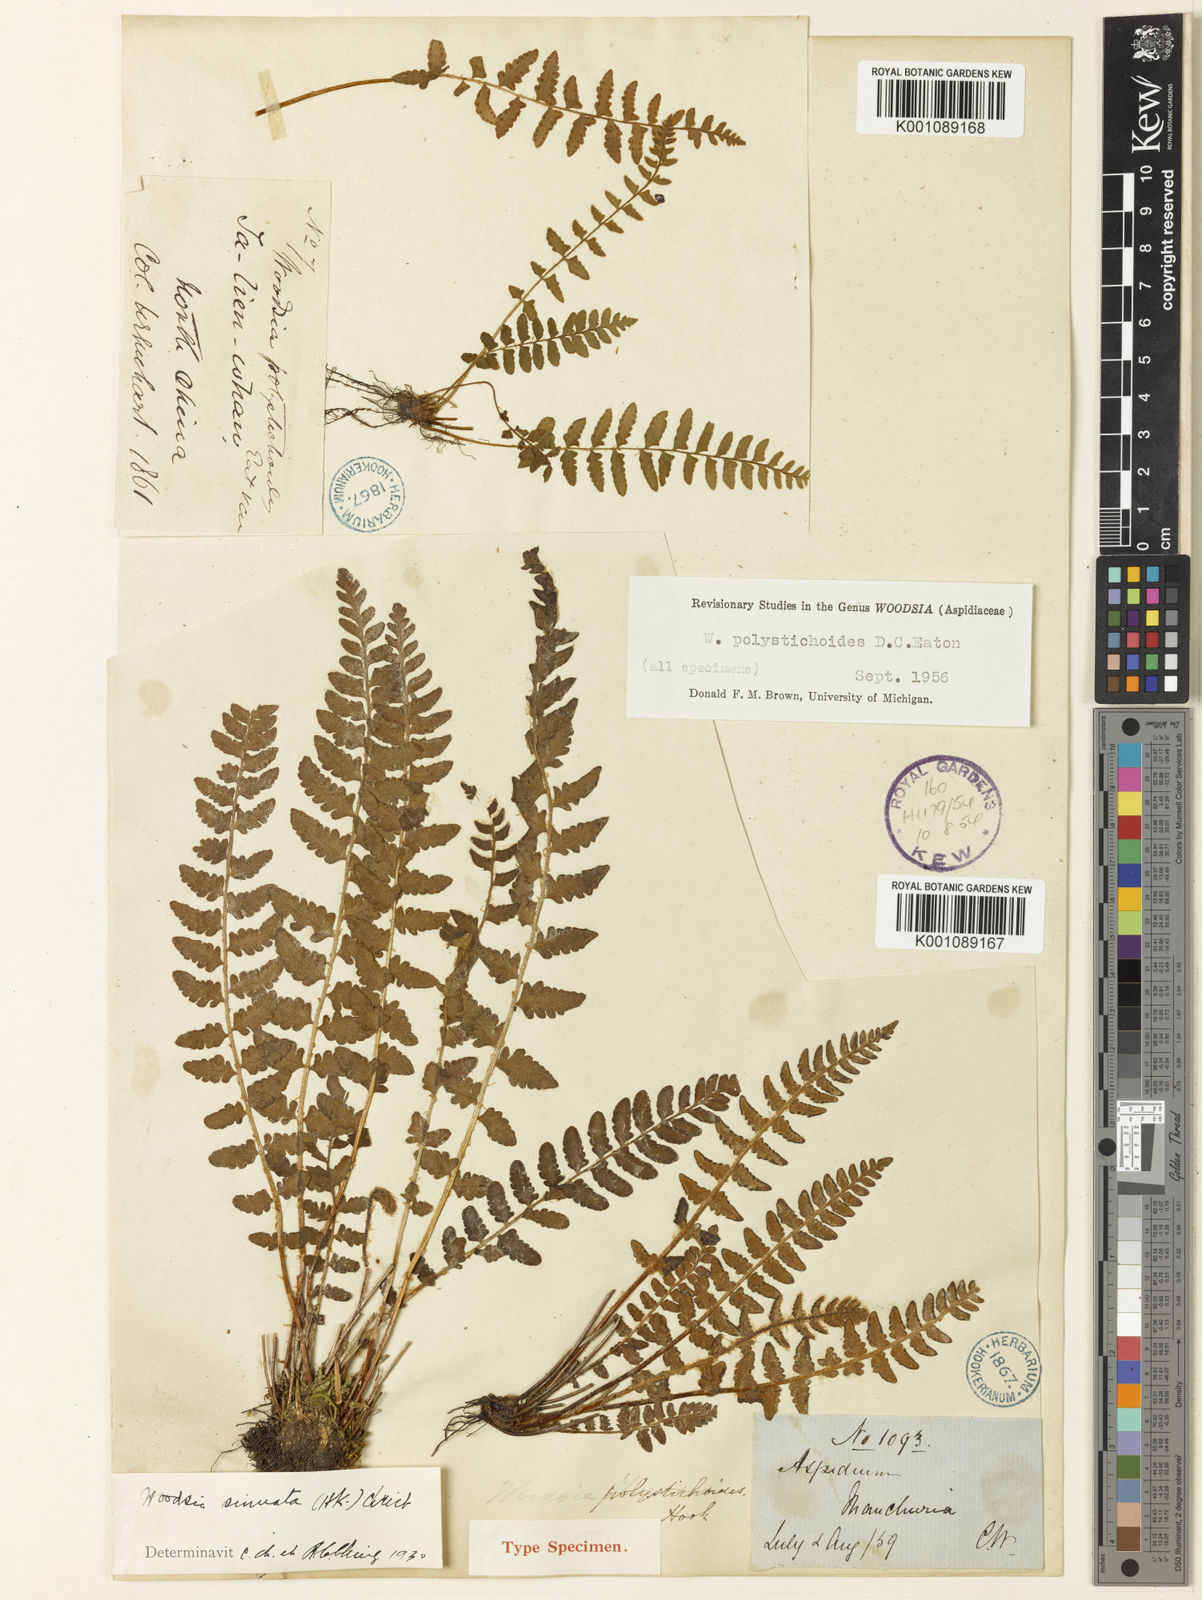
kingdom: Plantae
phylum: Tracheophyta
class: Polypodiopsida
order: Polypodiales
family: Woodsiaceae
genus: Woodsia
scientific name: Woodsia subcordata
